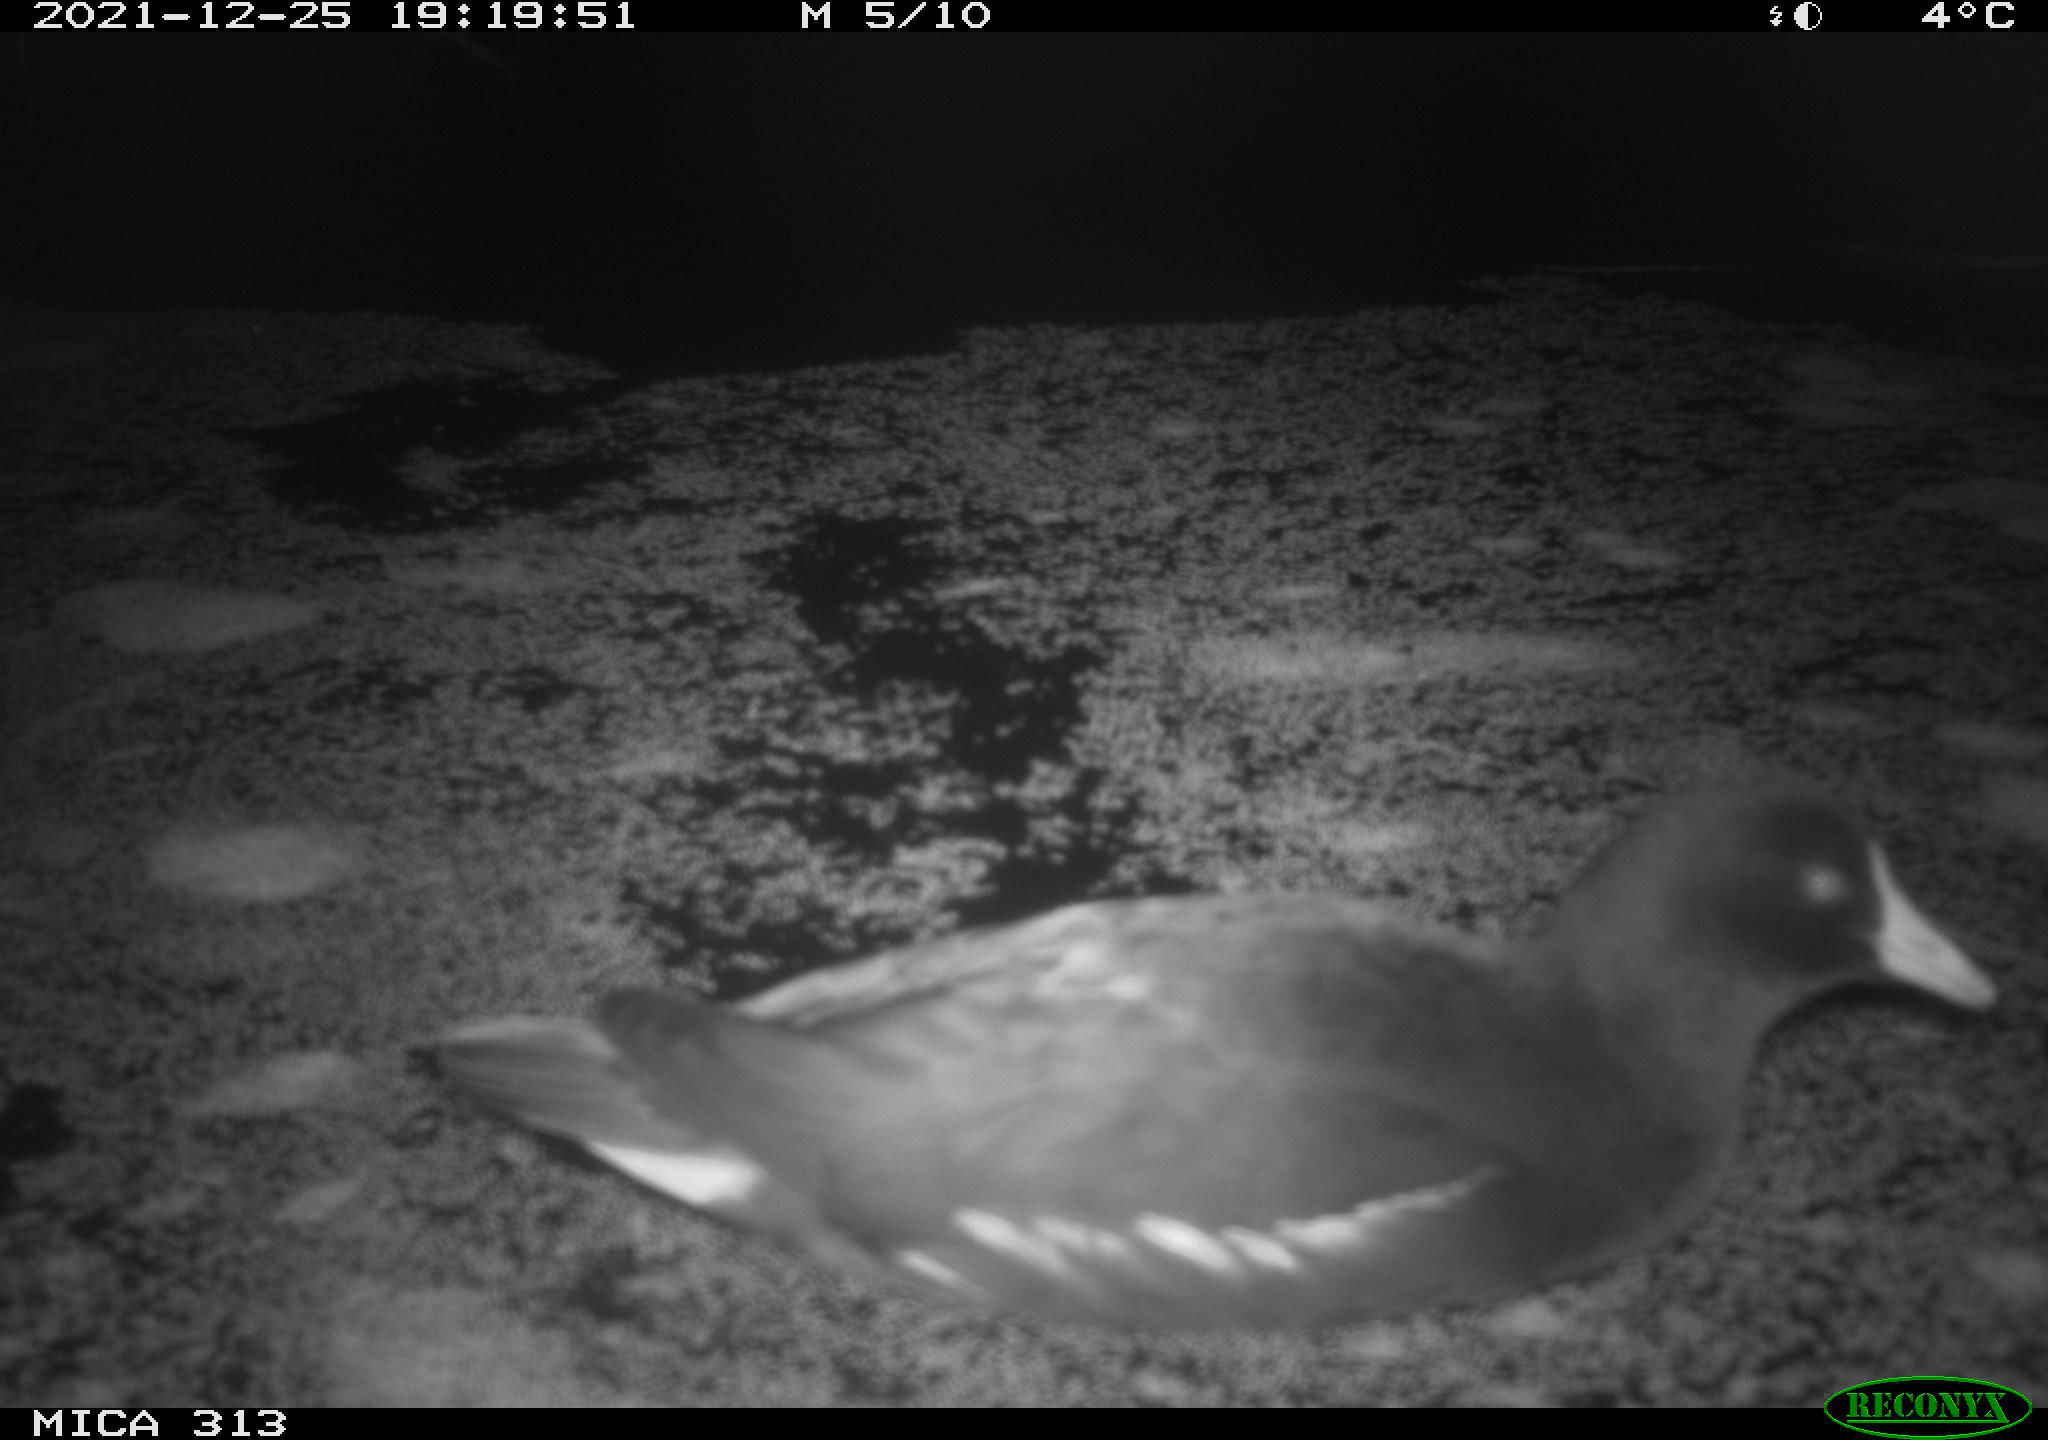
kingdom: Animalia
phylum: Chordata
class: Aves
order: Gruiformes
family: Rallidae
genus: Fulica
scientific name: Fulica atra
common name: Eurasian coot
